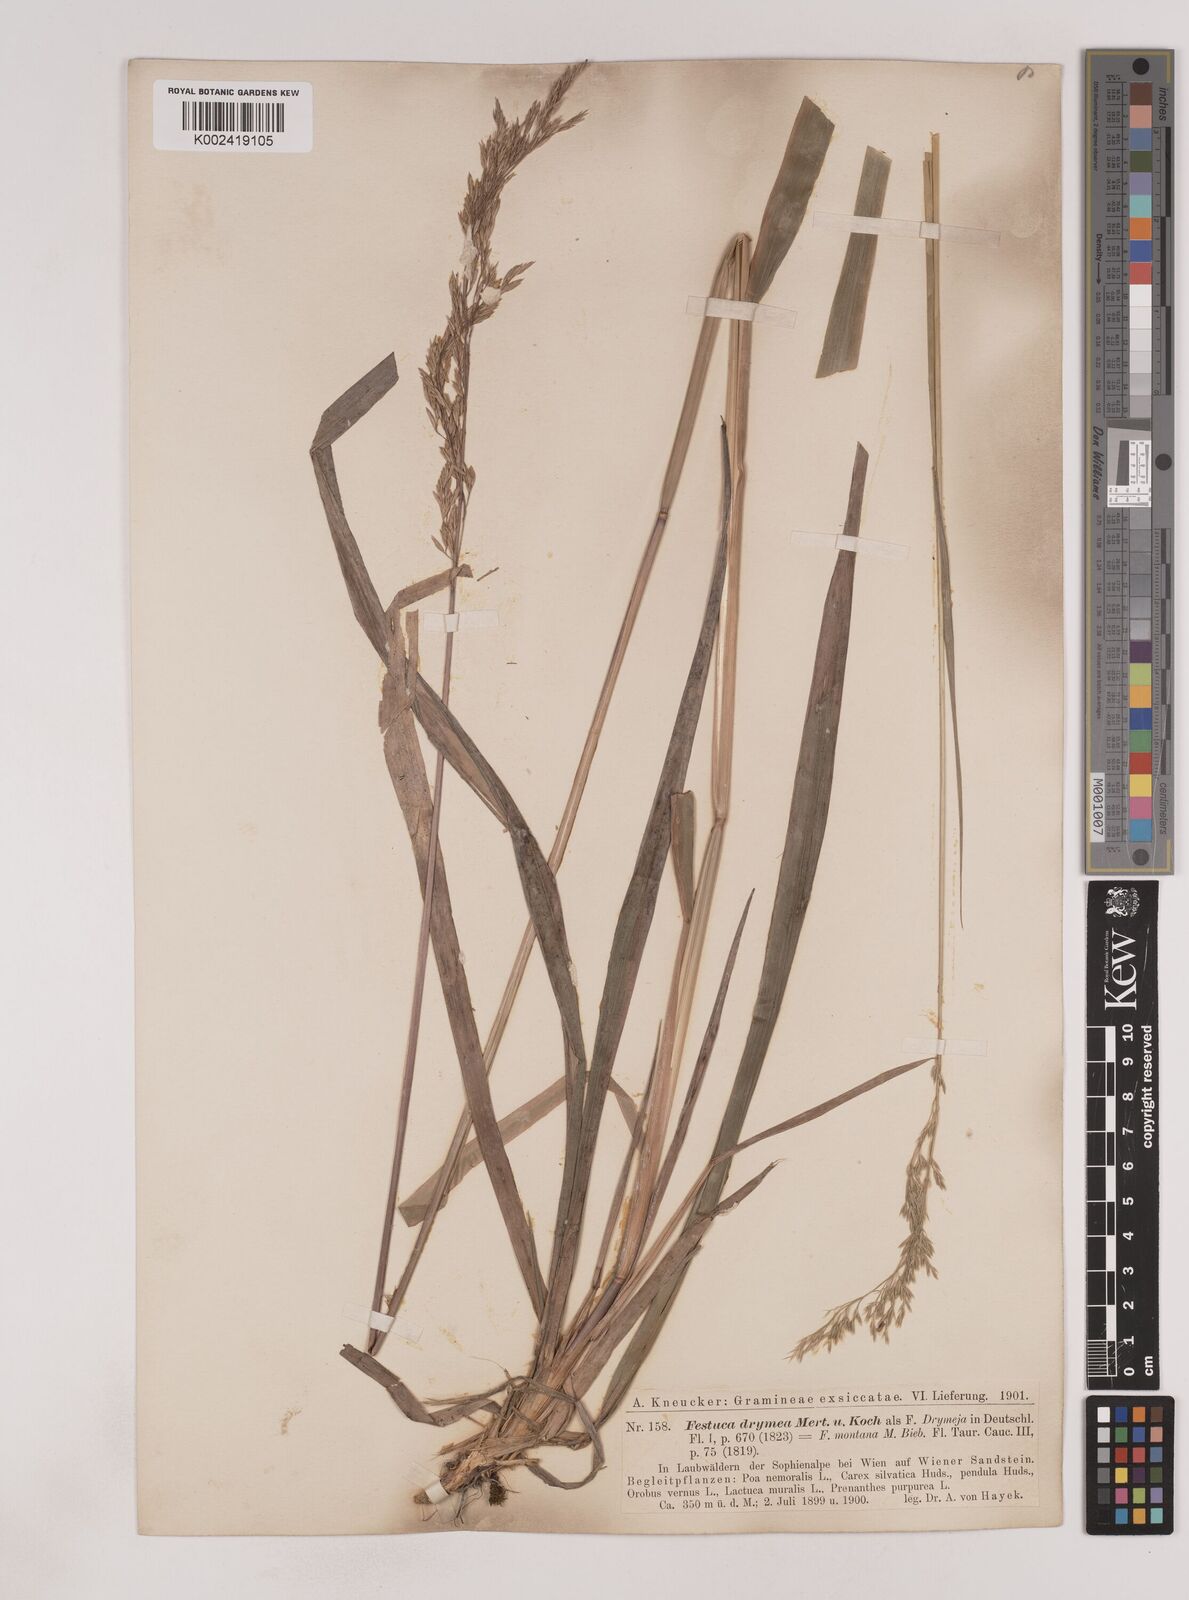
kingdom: Plantae
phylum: Tracheophyta
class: Liliopsida
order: Poales
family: Poaceae
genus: Festuca
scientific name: Festuca drymeja
